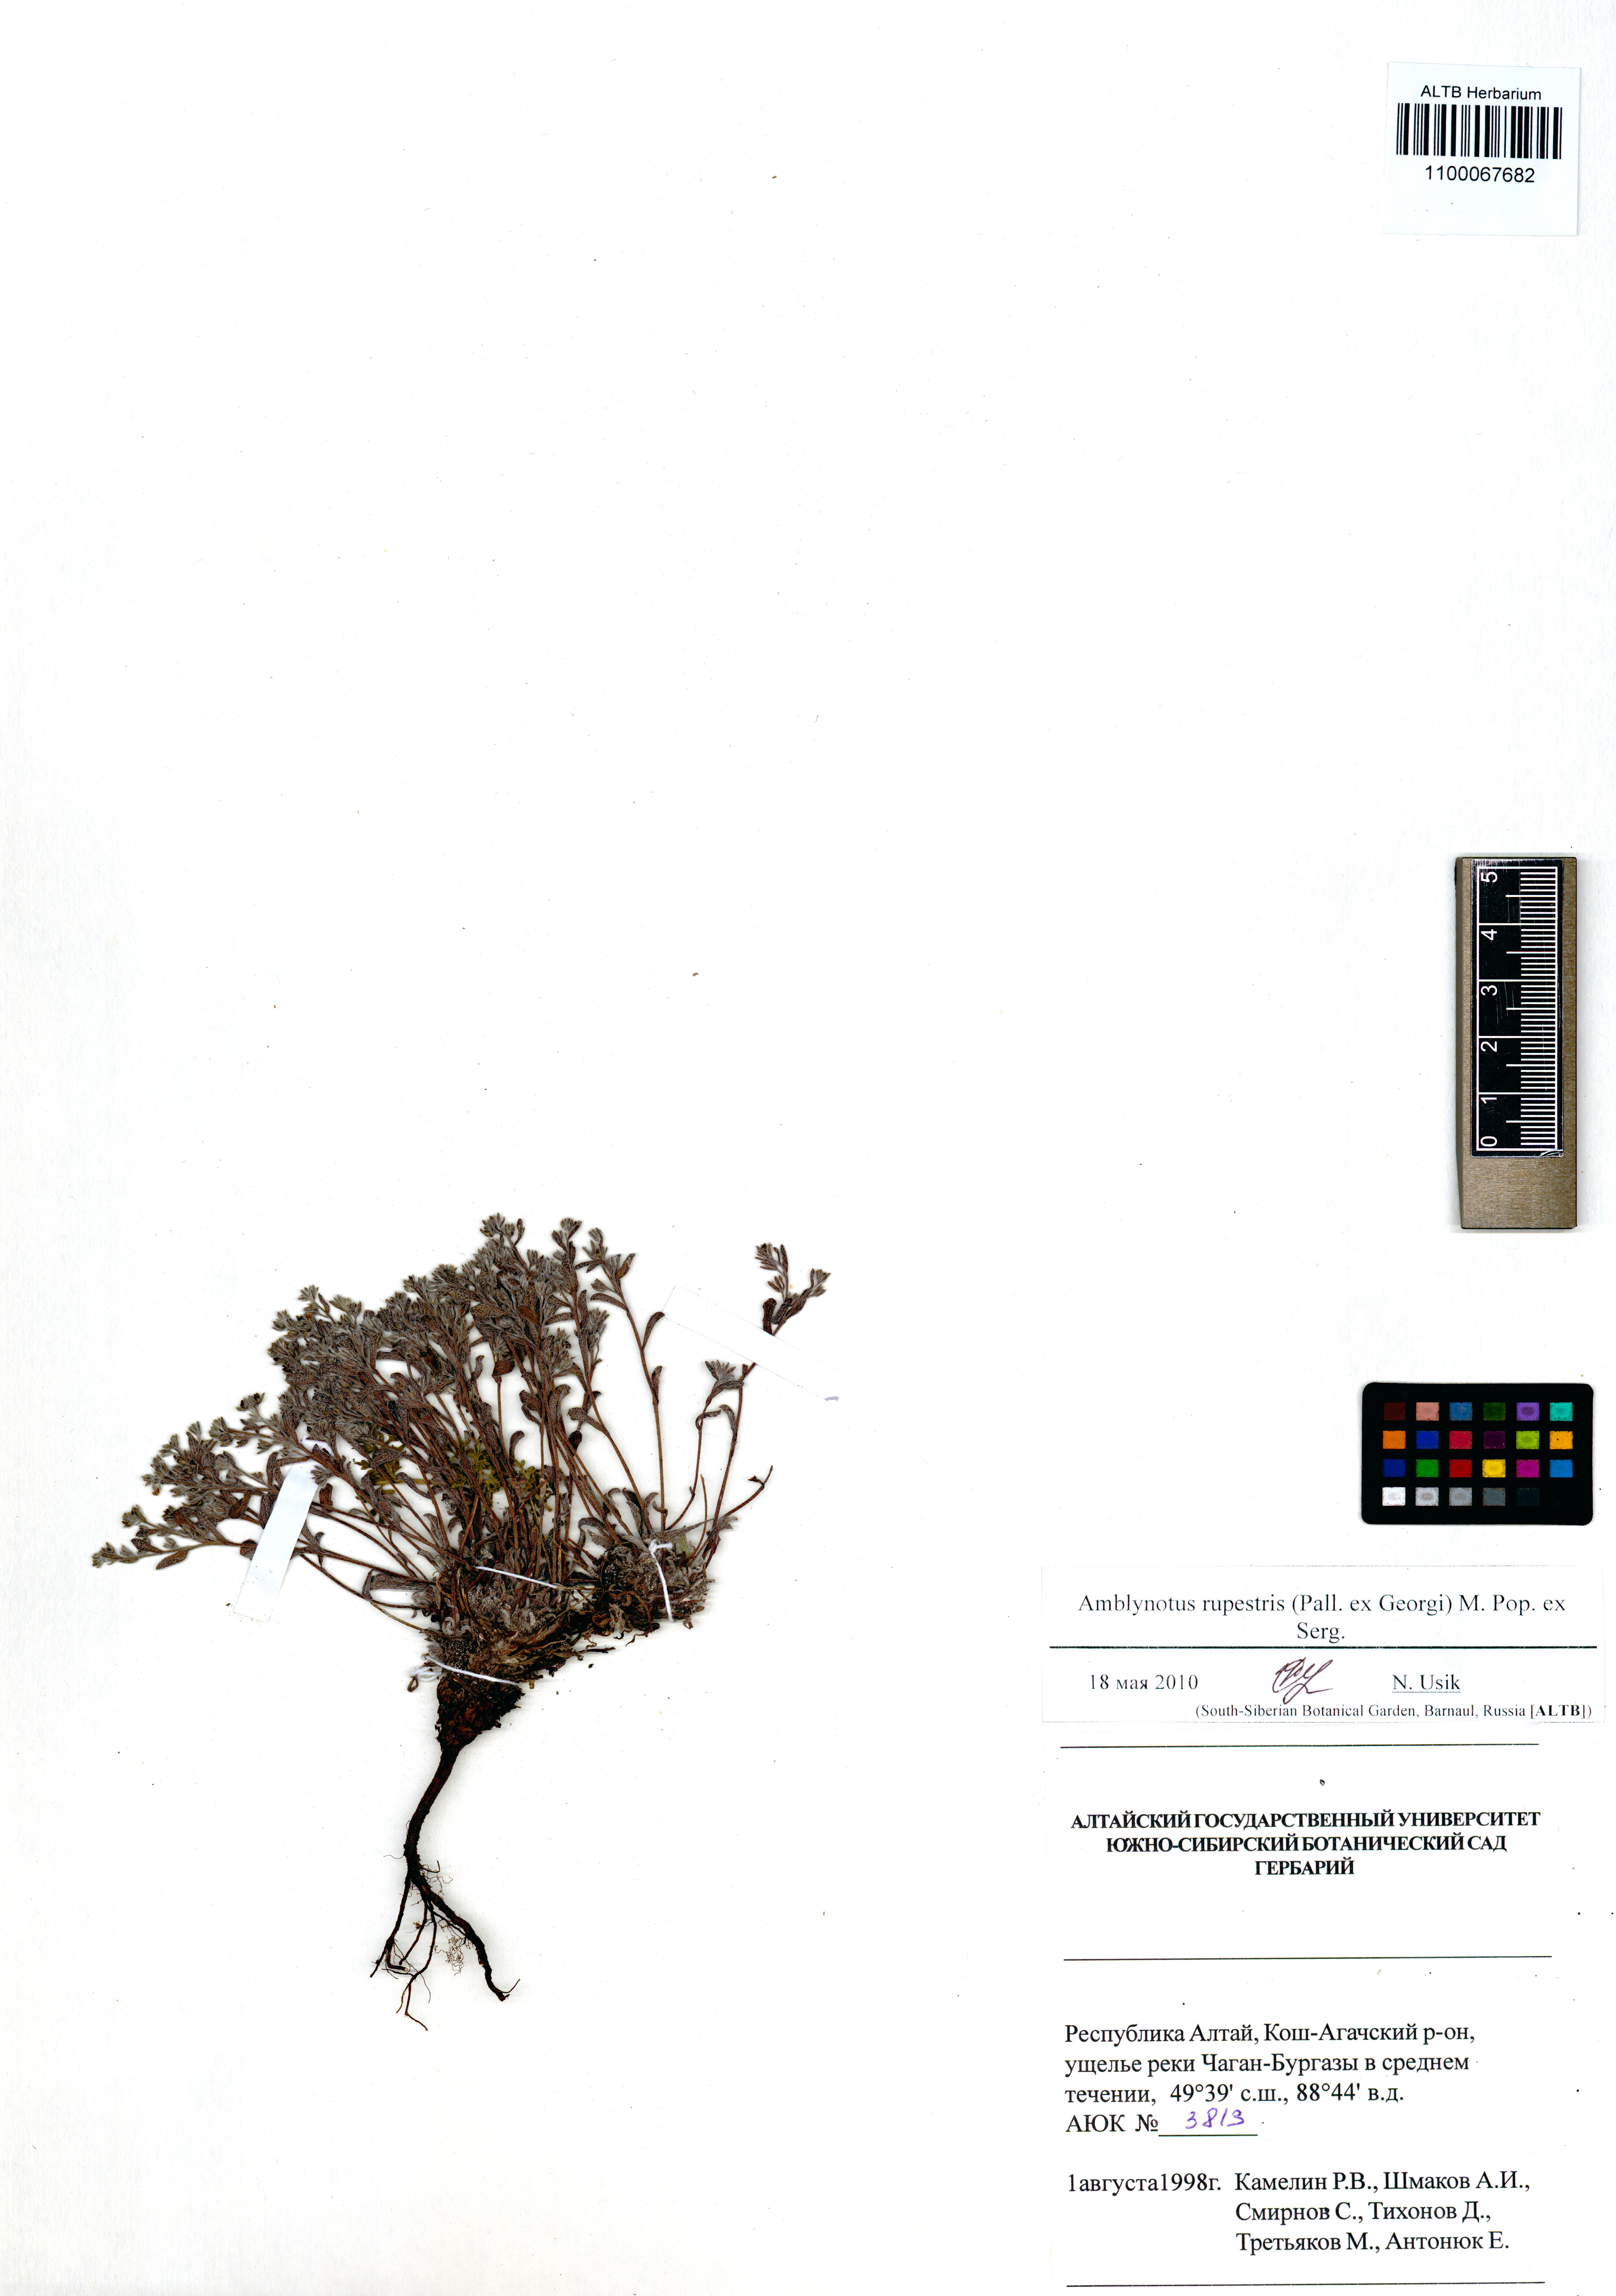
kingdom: Plantae
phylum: Tracheophyta
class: Magnoliopsida
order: Boraginales
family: Boraginaceae
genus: Eritrichium
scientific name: Eritrichium rupestre
